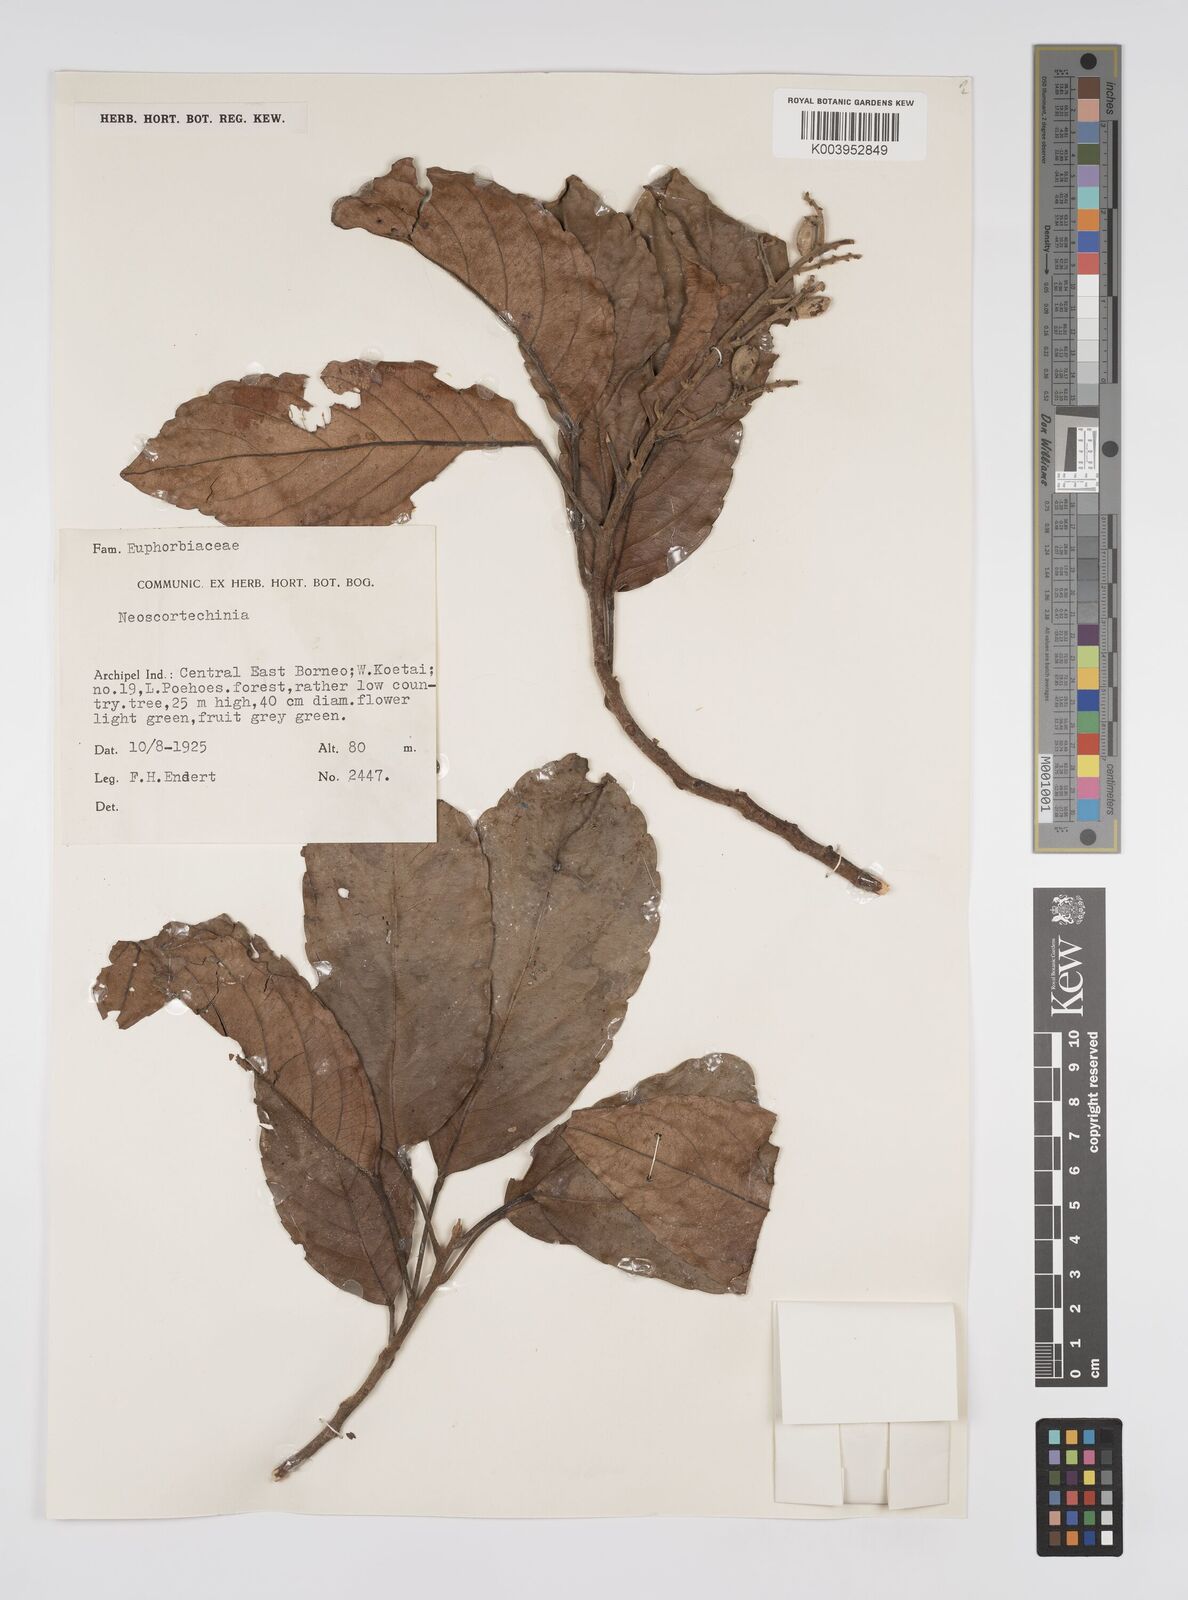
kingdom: Plantae
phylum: Tracheophyta
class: Magnoliopsida
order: Malpighiales
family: Euphorbiaceae
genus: Neoscortechinia
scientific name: Neoscortechinia nicobarica
